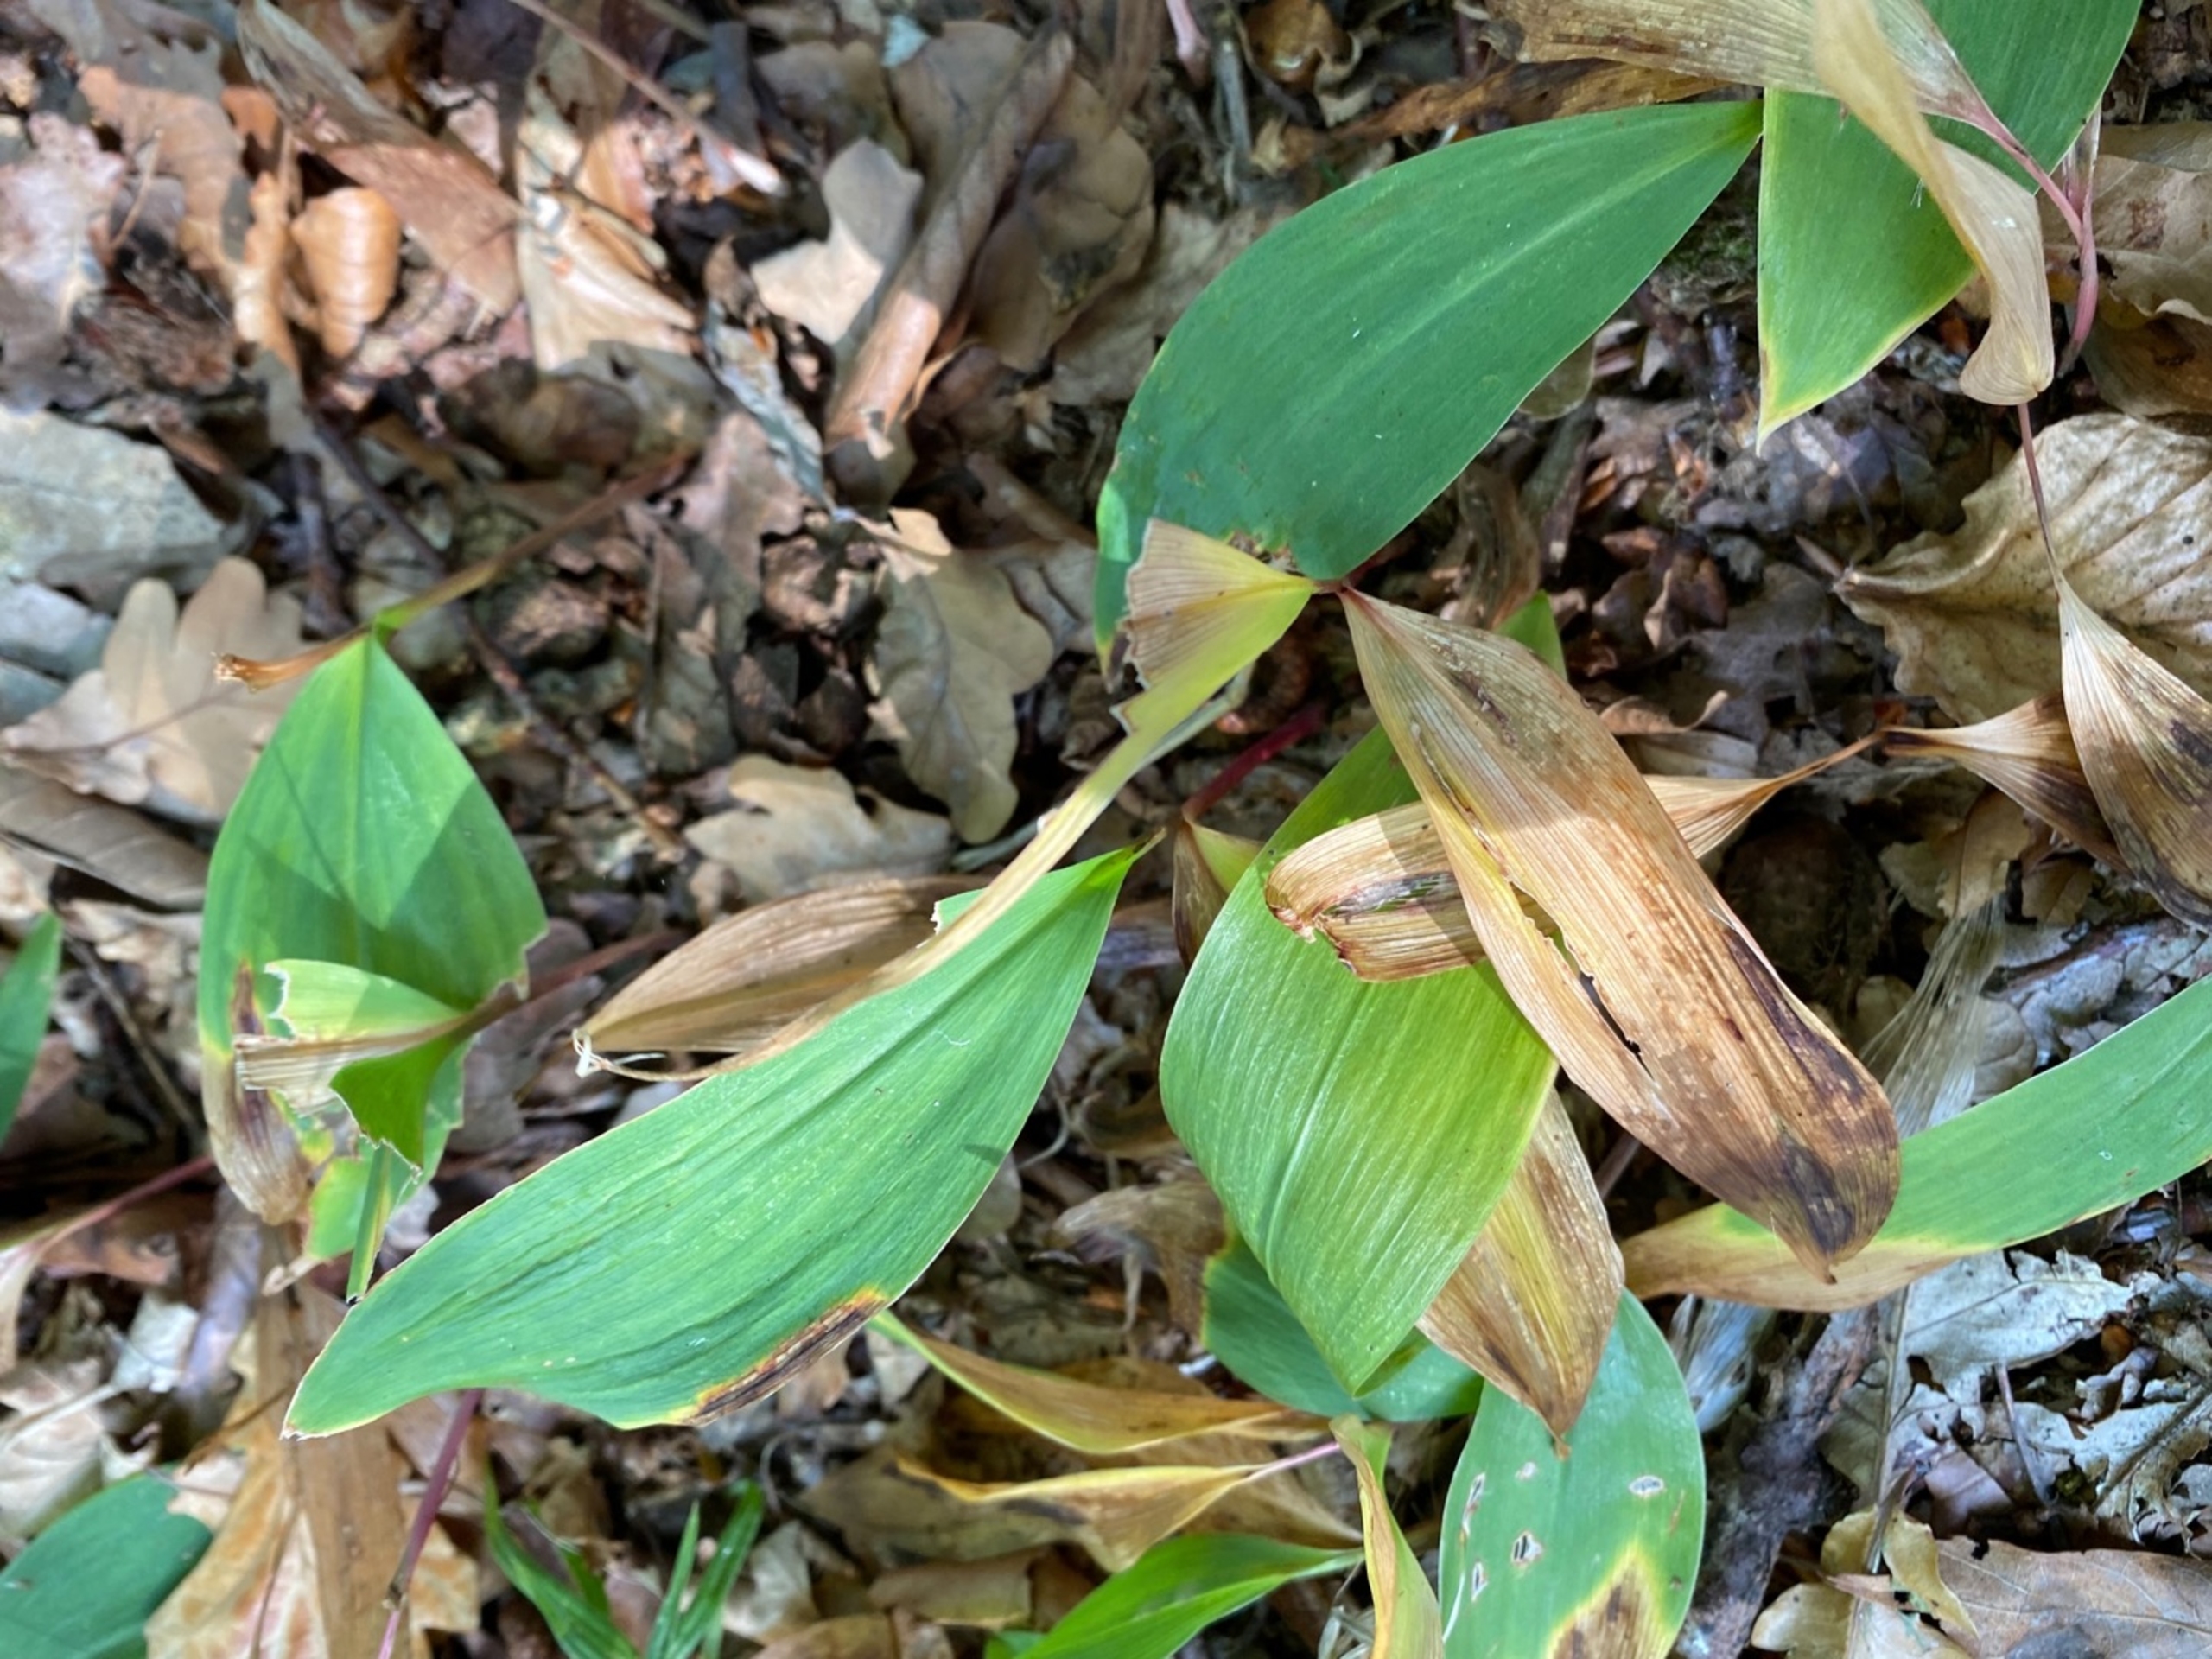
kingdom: Plantae
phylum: Tracheophyta
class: Liliopsida
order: Asparagales
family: Asparagaceae
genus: Convallaria
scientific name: Convallaria majalis
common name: Liljekonval
